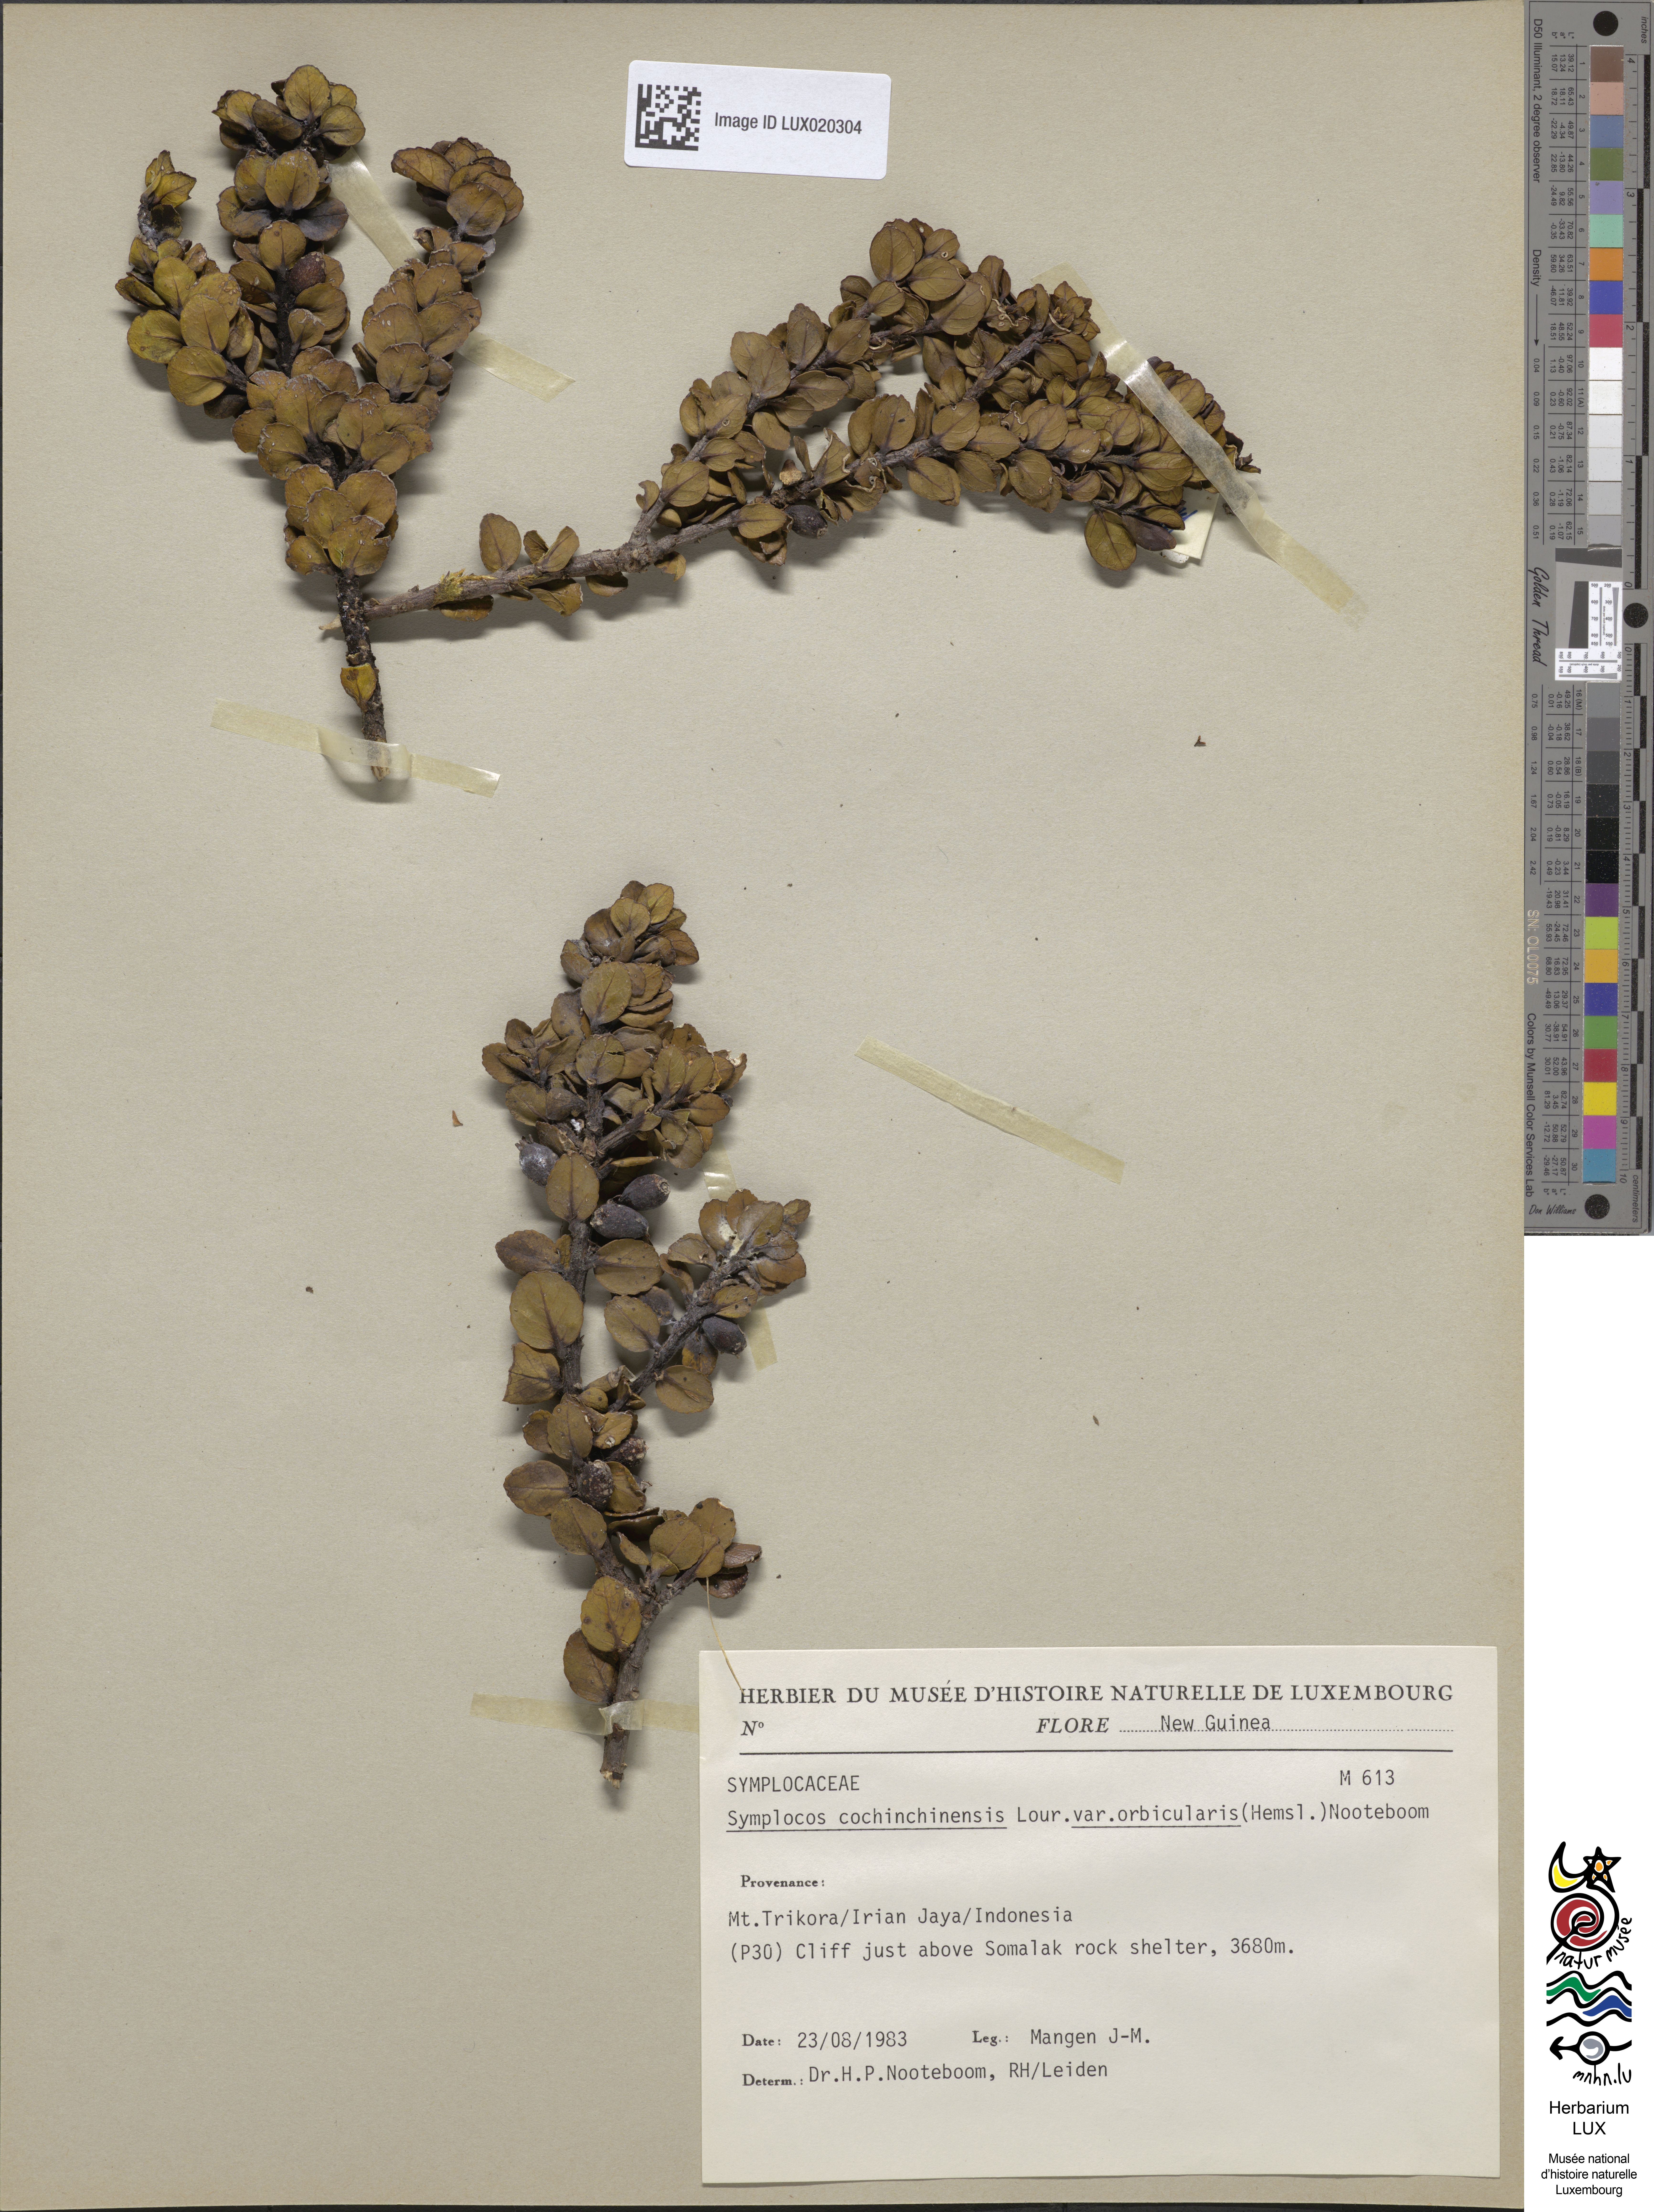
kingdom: Plantae
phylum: Tracheophyta
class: Magnoliopsida
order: Ericales
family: Symplocaceae
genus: Symplocos
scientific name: Symplocos orbicularis
